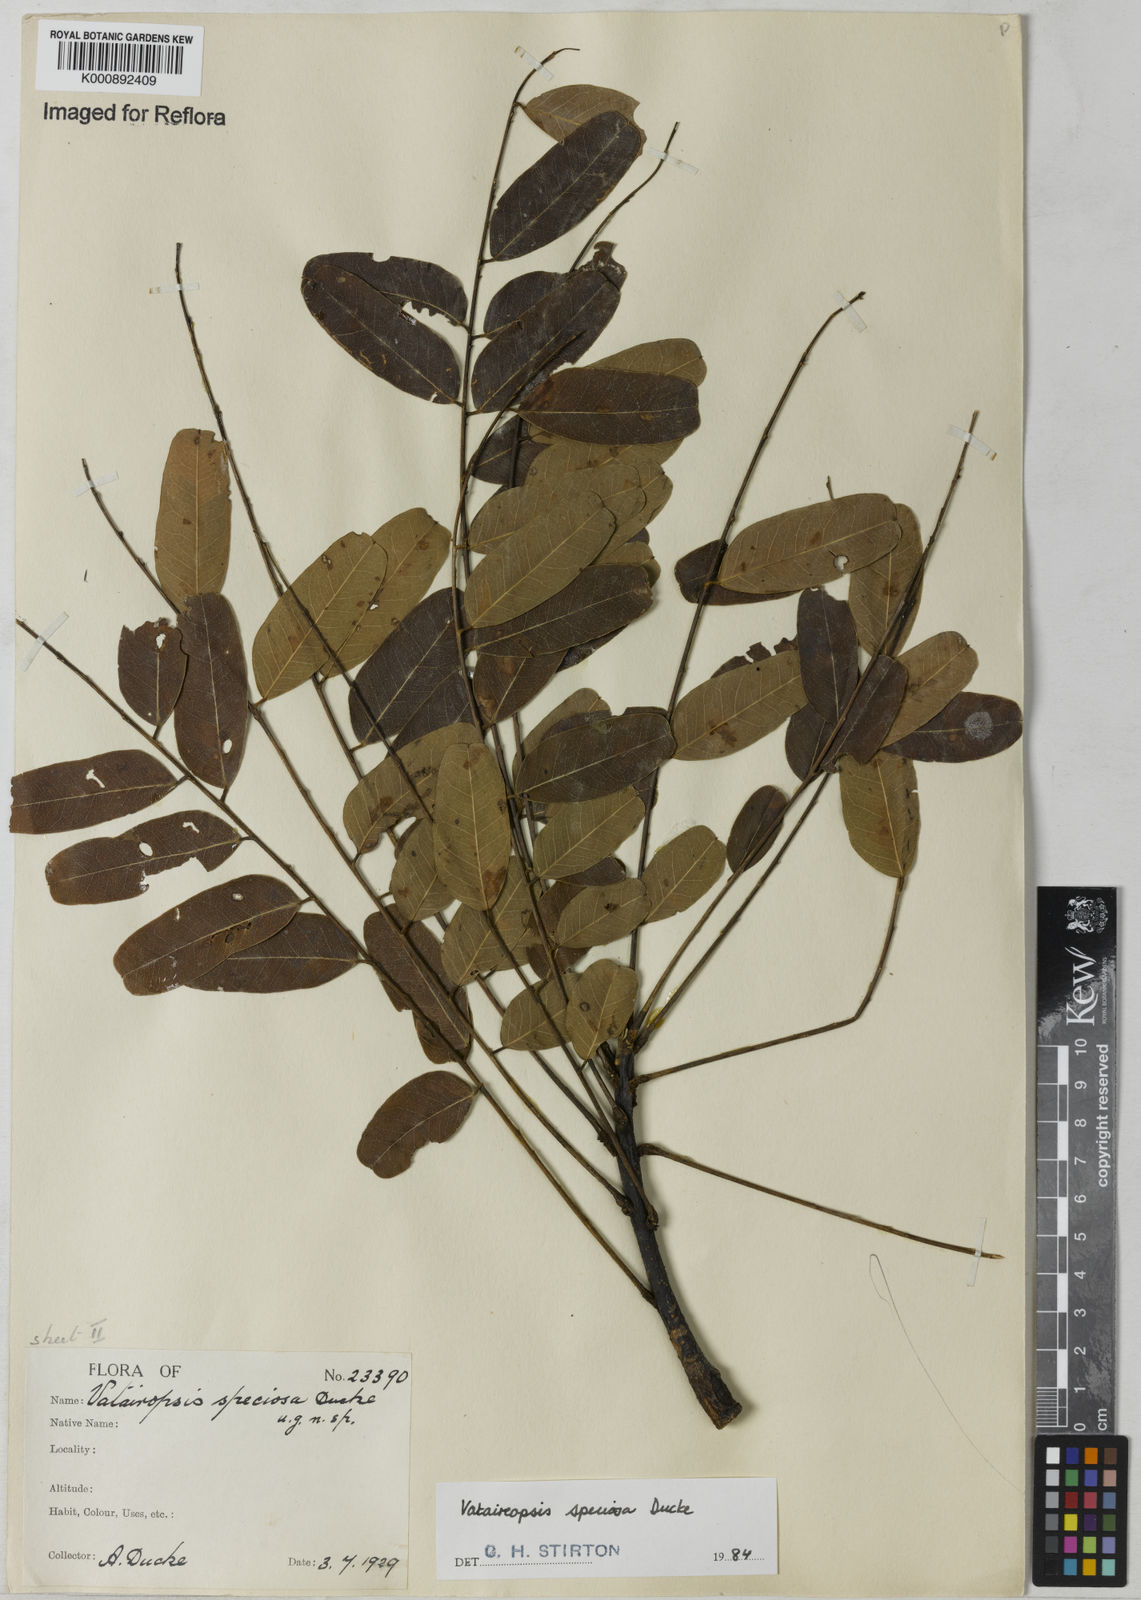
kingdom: Plantae
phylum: Tracheophyta
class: Magnoliopsida
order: Fabales
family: Fabaceae
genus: Vataireopsis
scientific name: Vataireopsis speciosa
